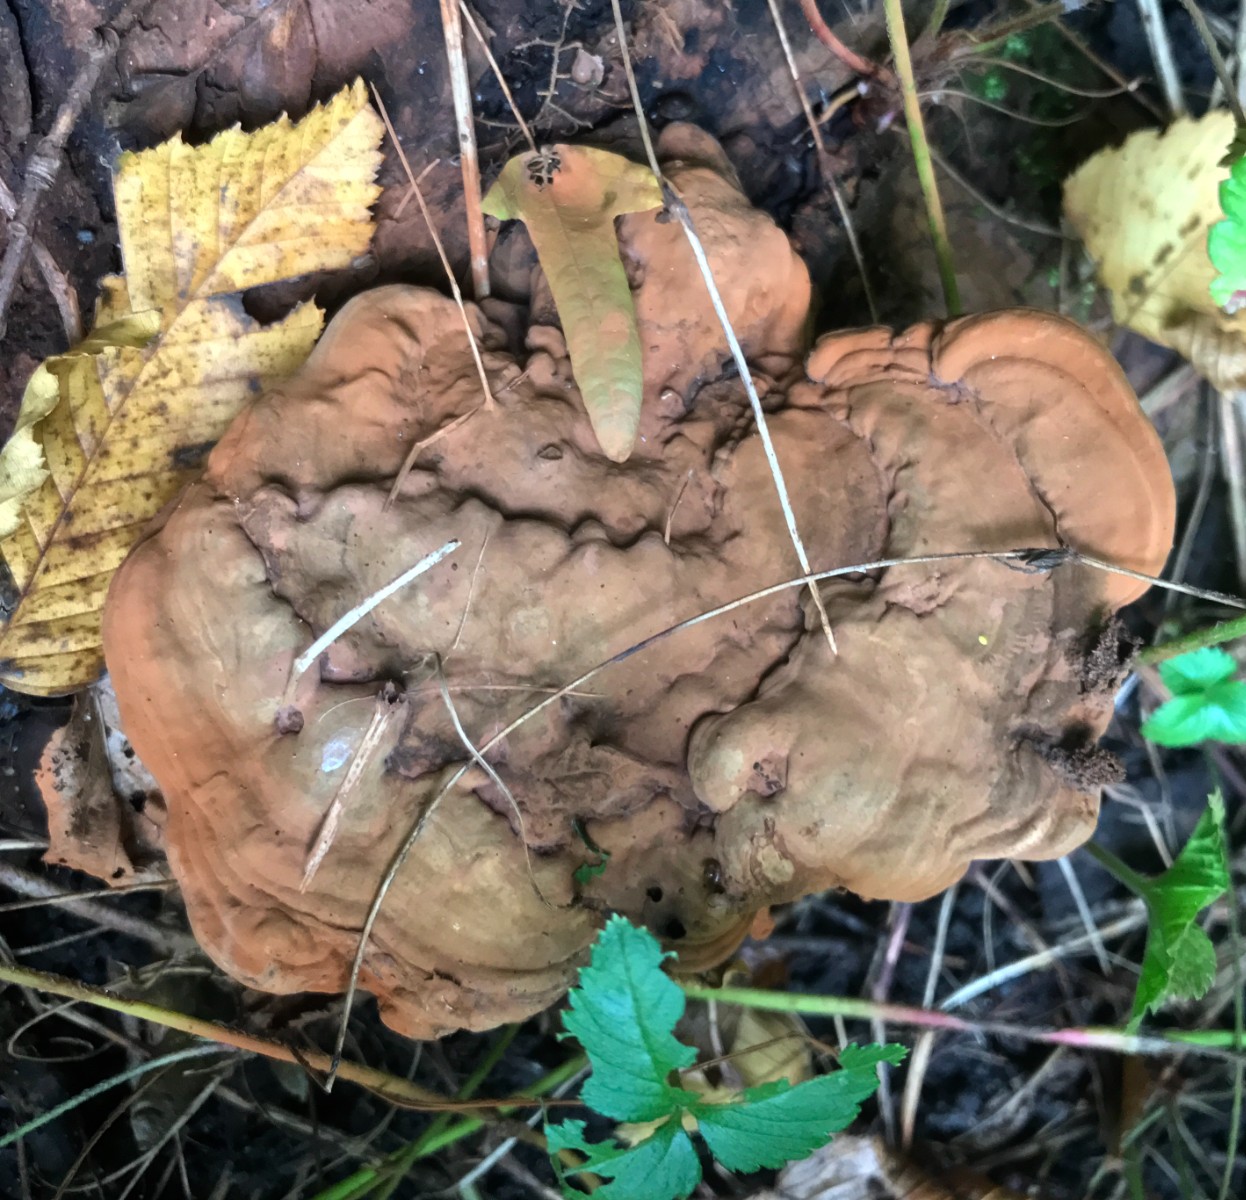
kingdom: Fungi
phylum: Basidiomycota
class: Agaricomycetes
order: Polyporales
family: Polyporaceae
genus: Ganoderma
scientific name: Ganoderma applanatum
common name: flad lakporesvamp
